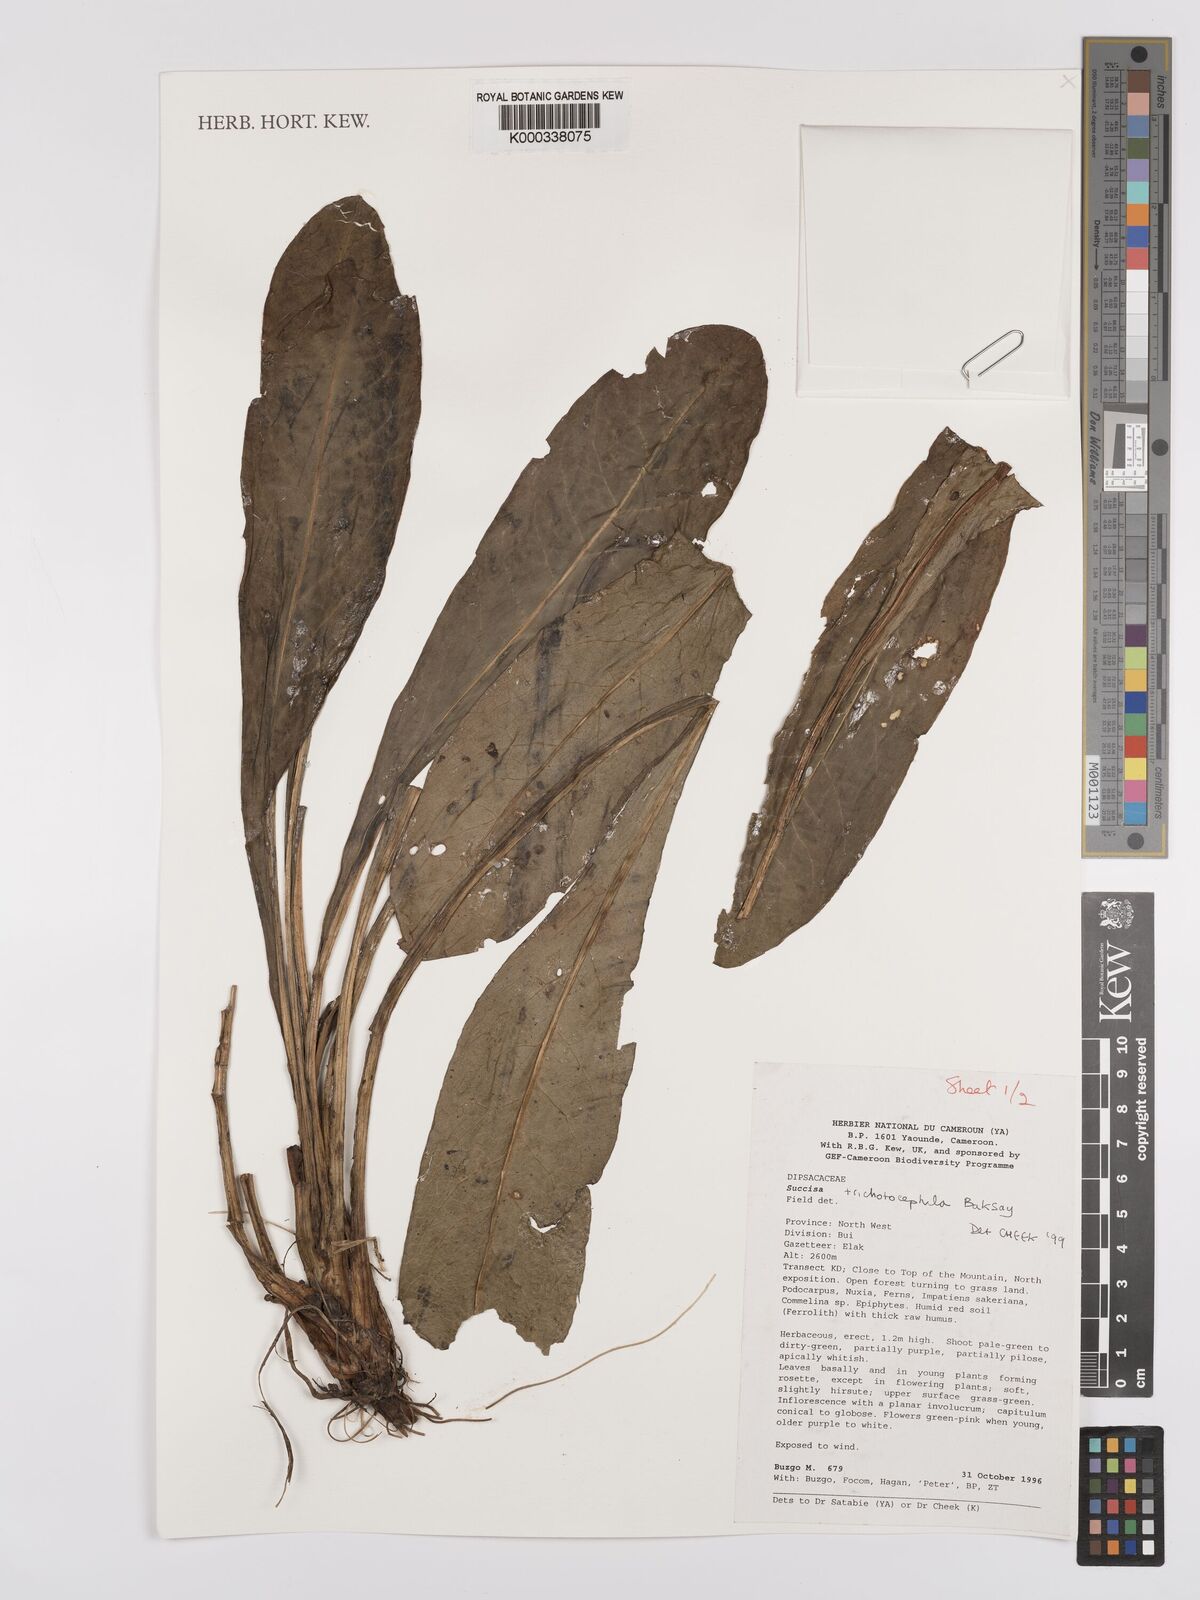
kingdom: Plantae
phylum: Tracheophyta
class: Magnoliopsida
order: Dipsacales
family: Caprifoliaceae
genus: Succisa
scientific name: Succisa trichotocephala
